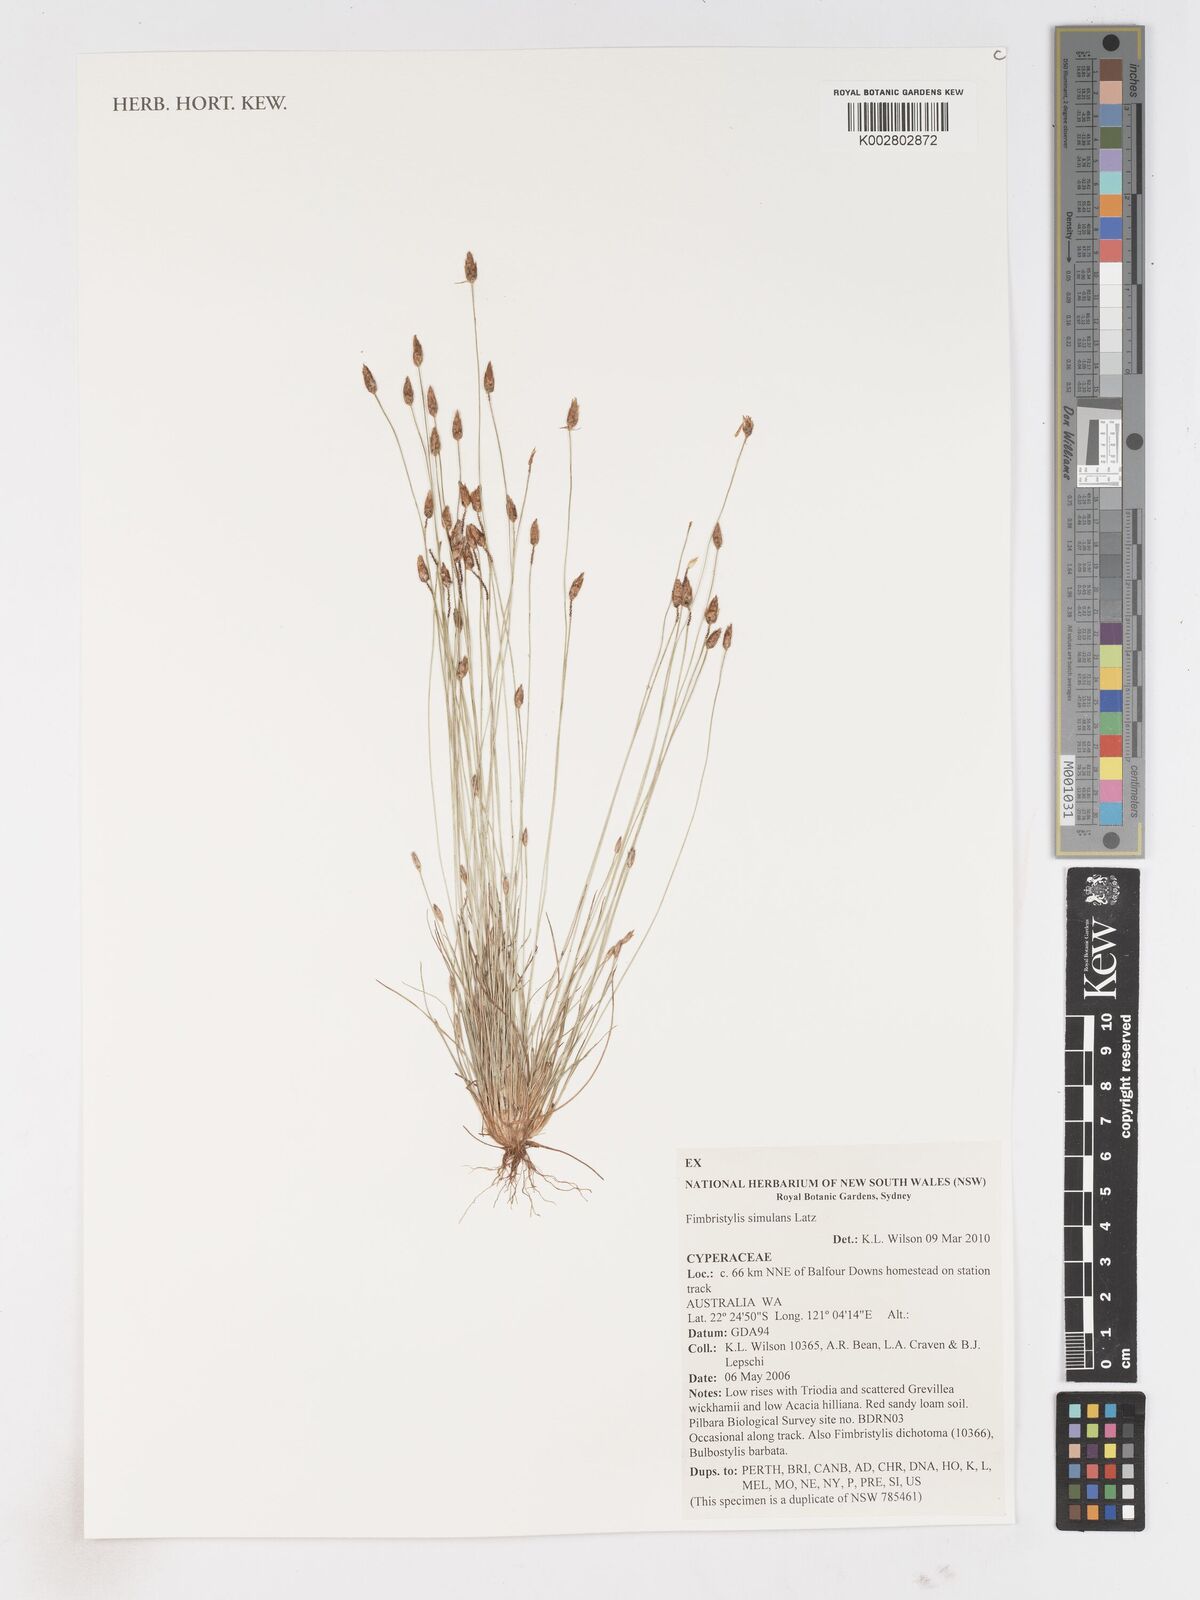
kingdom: Plantae
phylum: Tracheophyta
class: Liliopsida
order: Poales
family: Cyperaceae
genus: Fimbristylis
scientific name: Fimbristylis simulans
